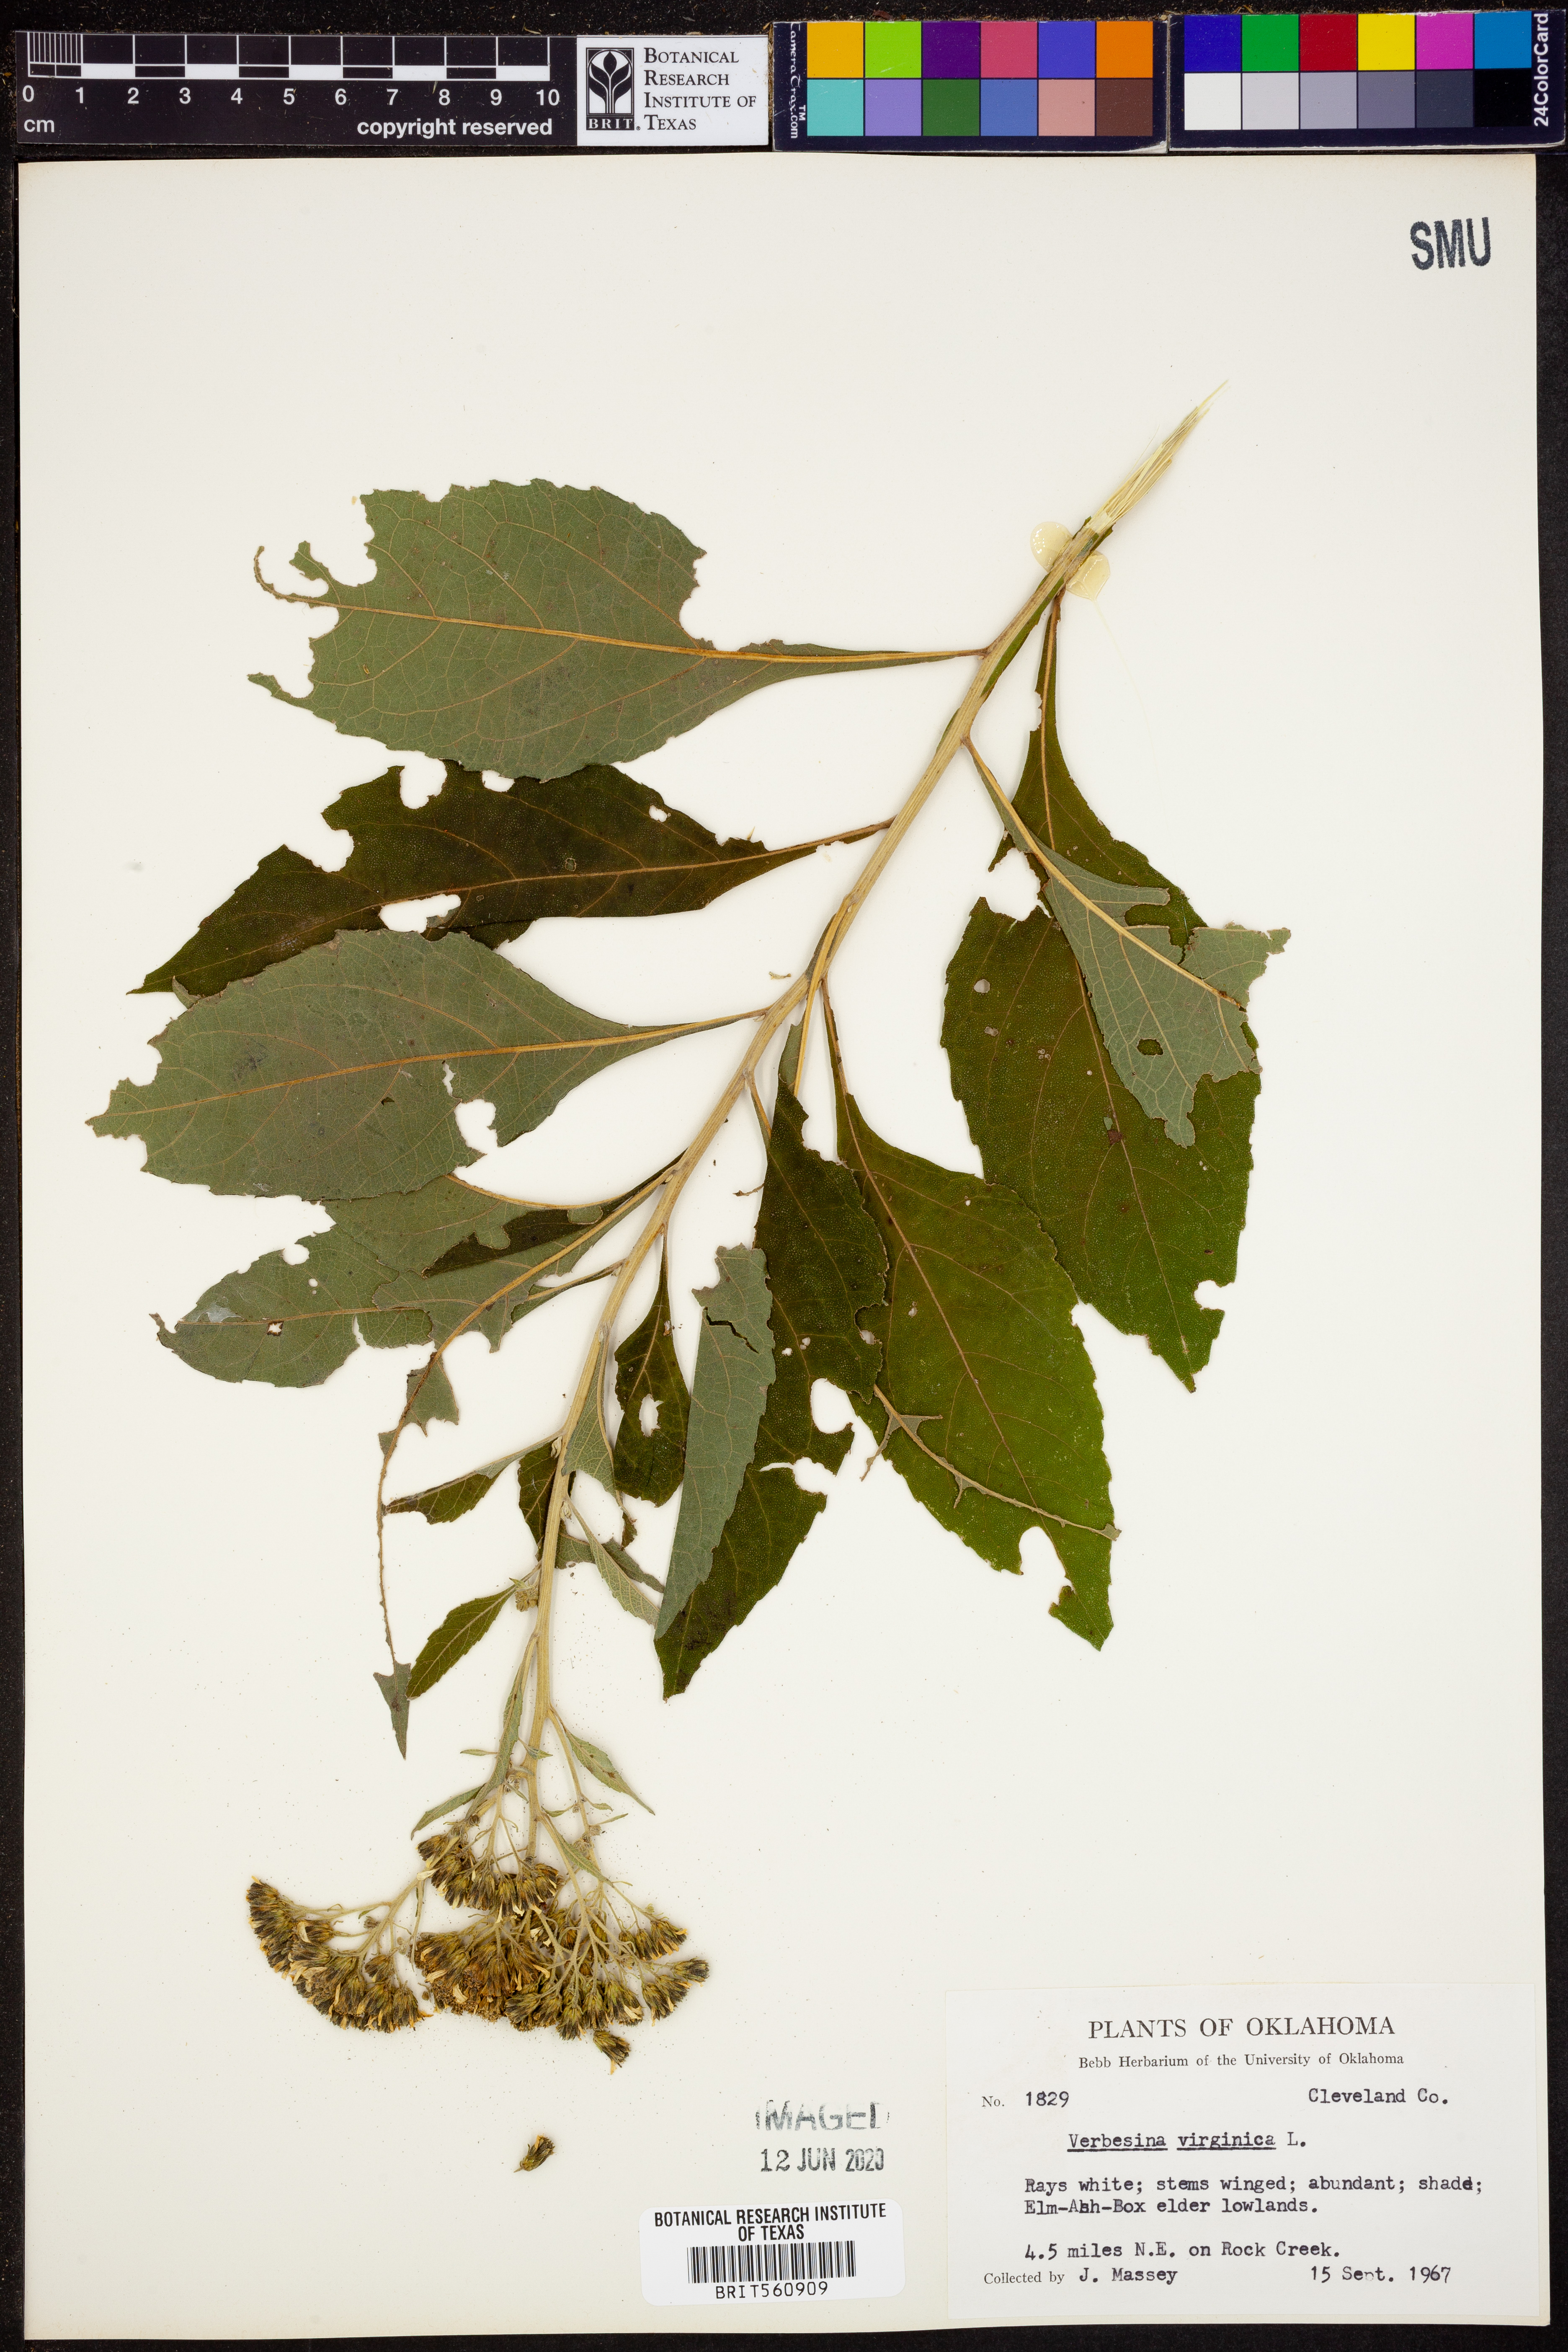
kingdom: Plantae
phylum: Tracheophyta
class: Magnoliopsida
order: Asterales
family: Asteraceae
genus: Verbesina
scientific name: Verbesina virginica
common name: Frostweed
